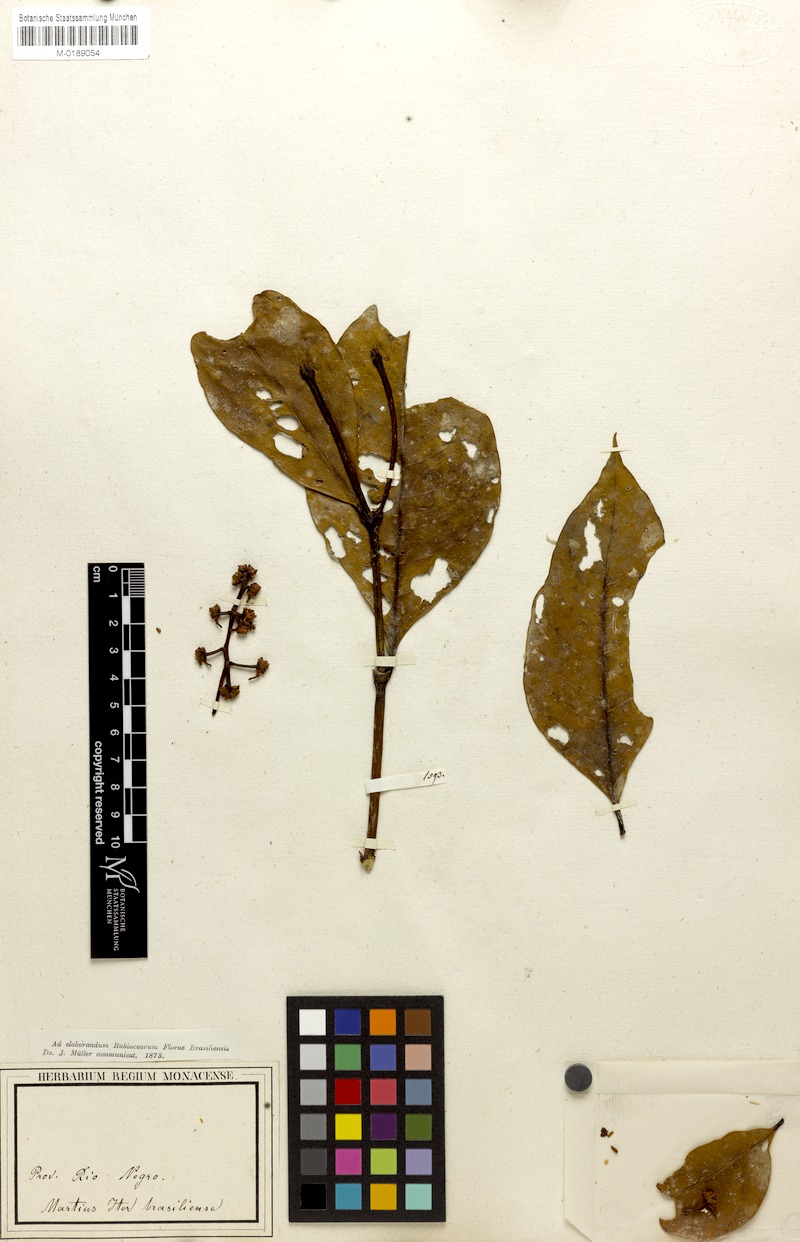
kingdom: Plantae
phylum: Tracheophyta
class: Magnoliopsida
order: Gentianales
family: Rubiaceae
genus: Palicourea
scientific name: Palicourea egensis
